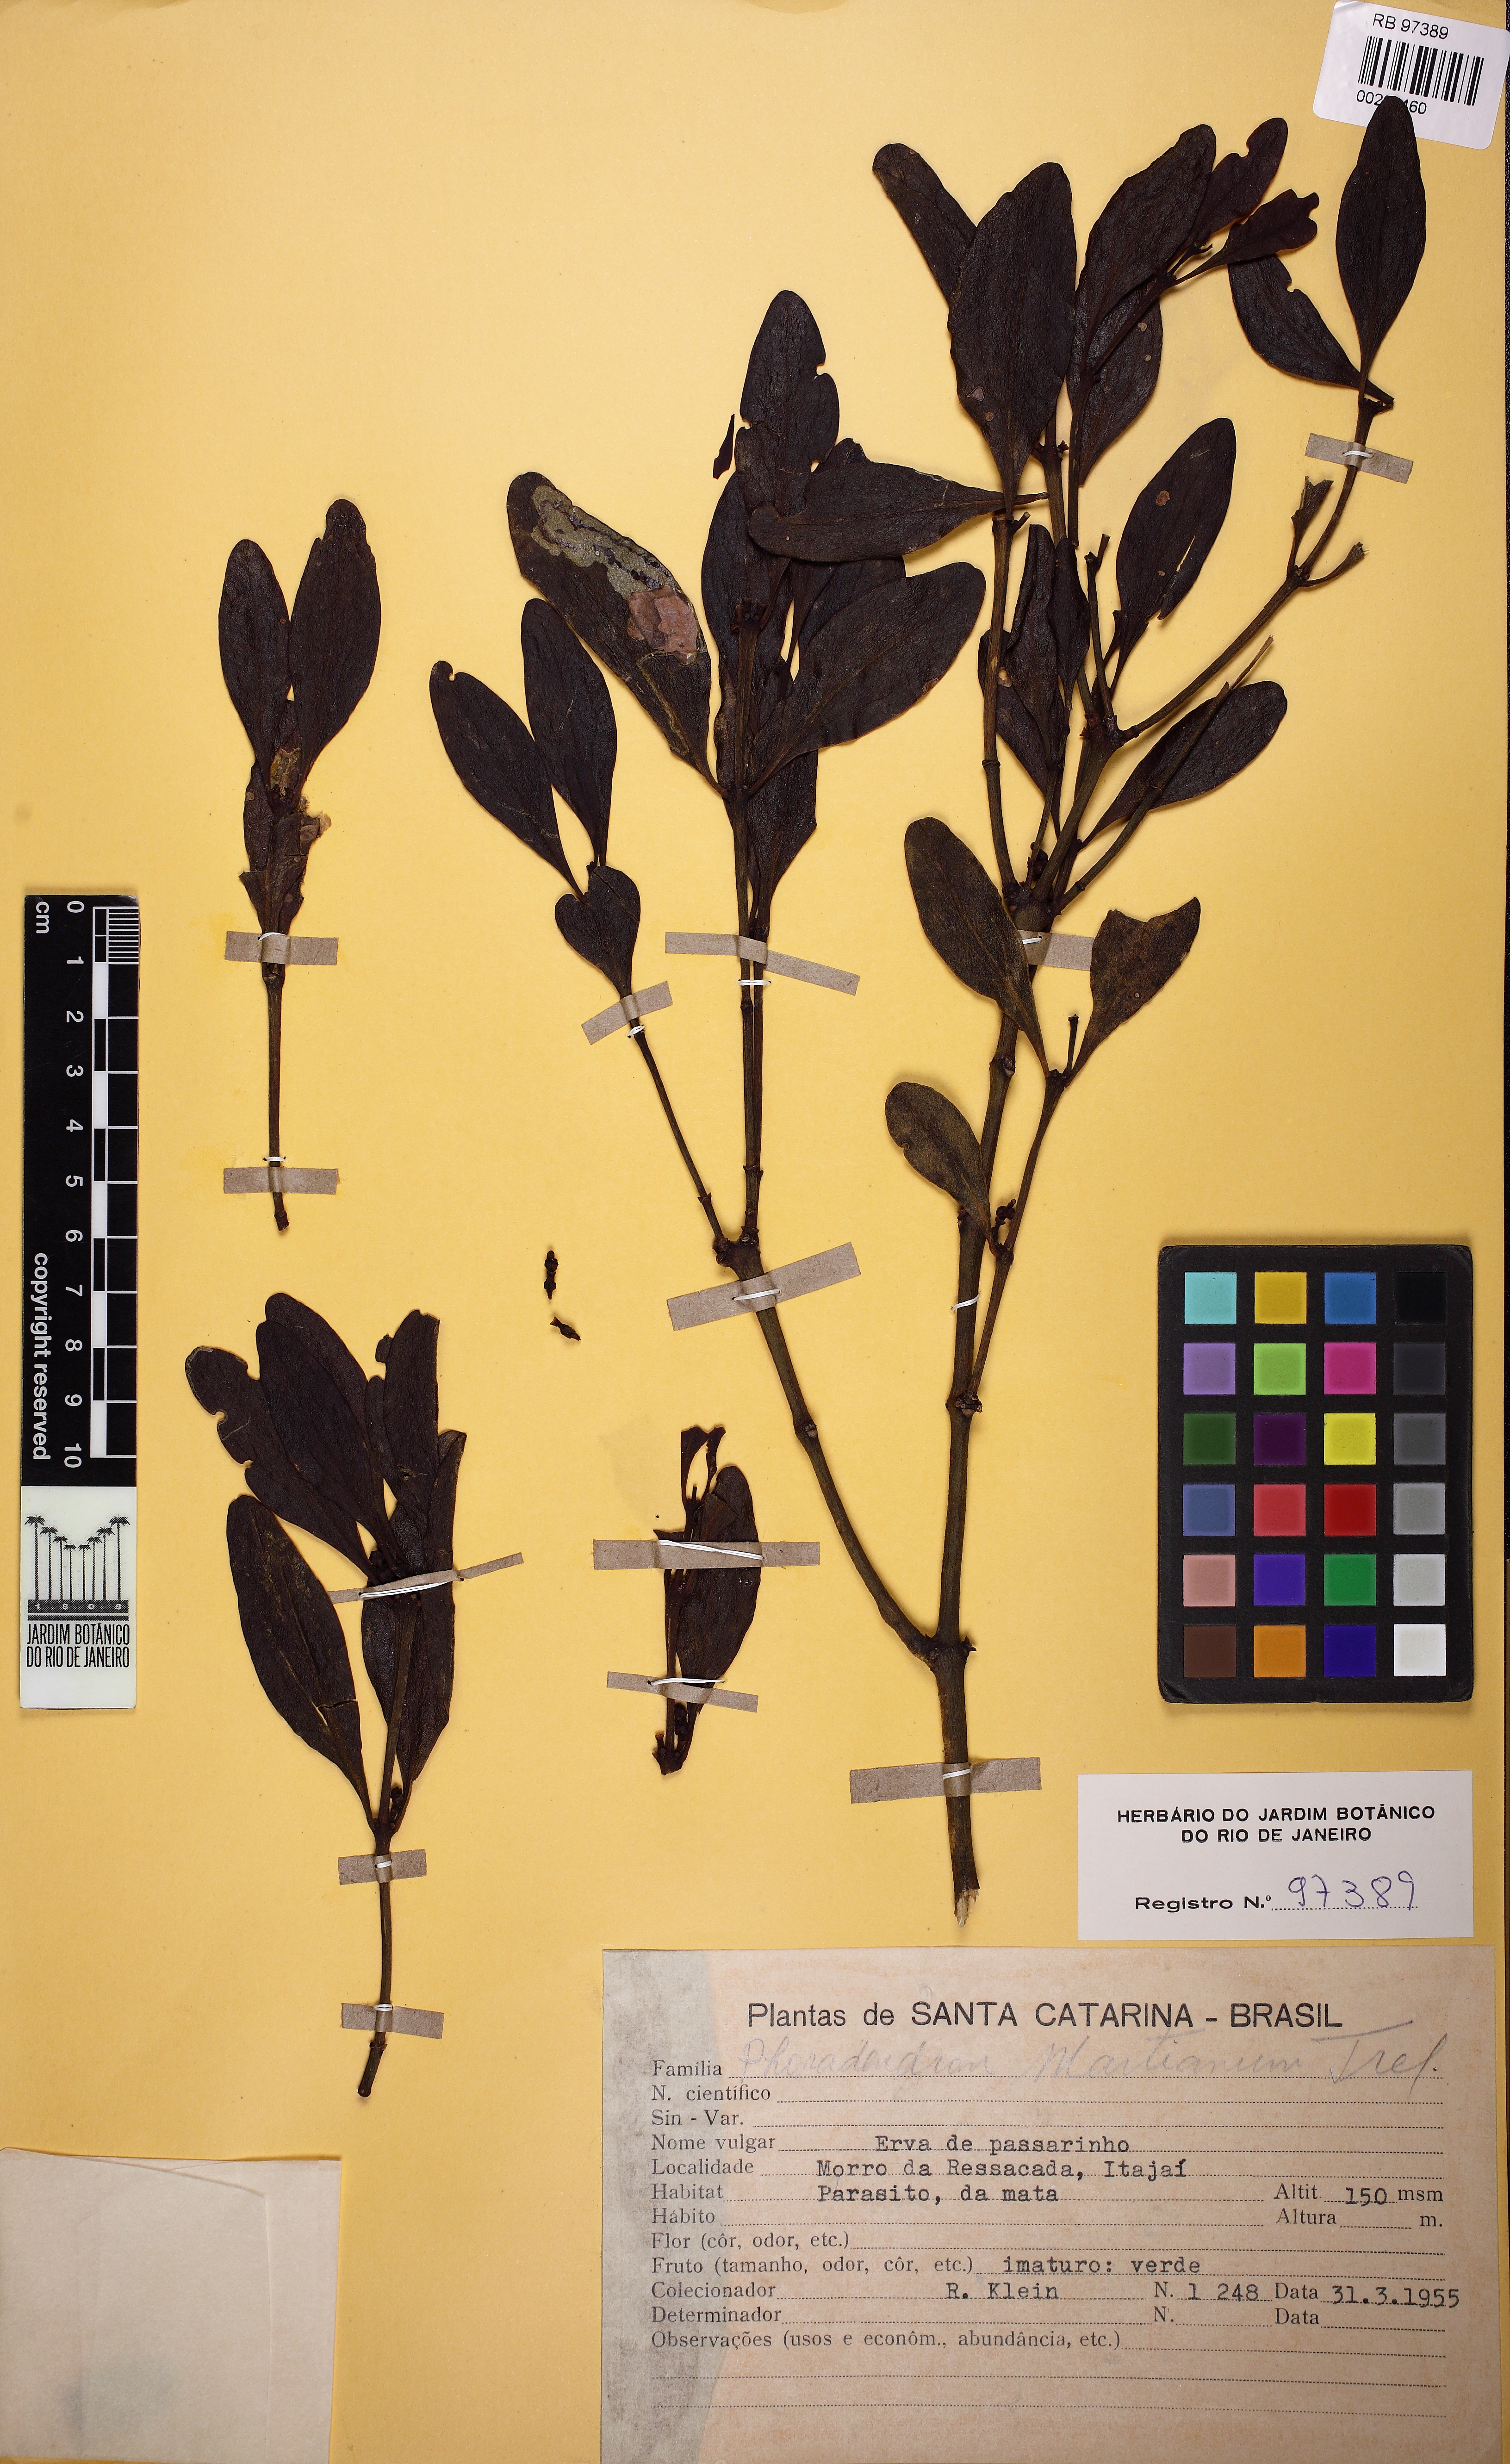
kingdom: Plantae
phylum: Tracheophyta
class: Magnoliopsida
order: Santalales
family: Viscaceae
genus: Phoradendron
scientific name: Phoradendron quadrangulare
